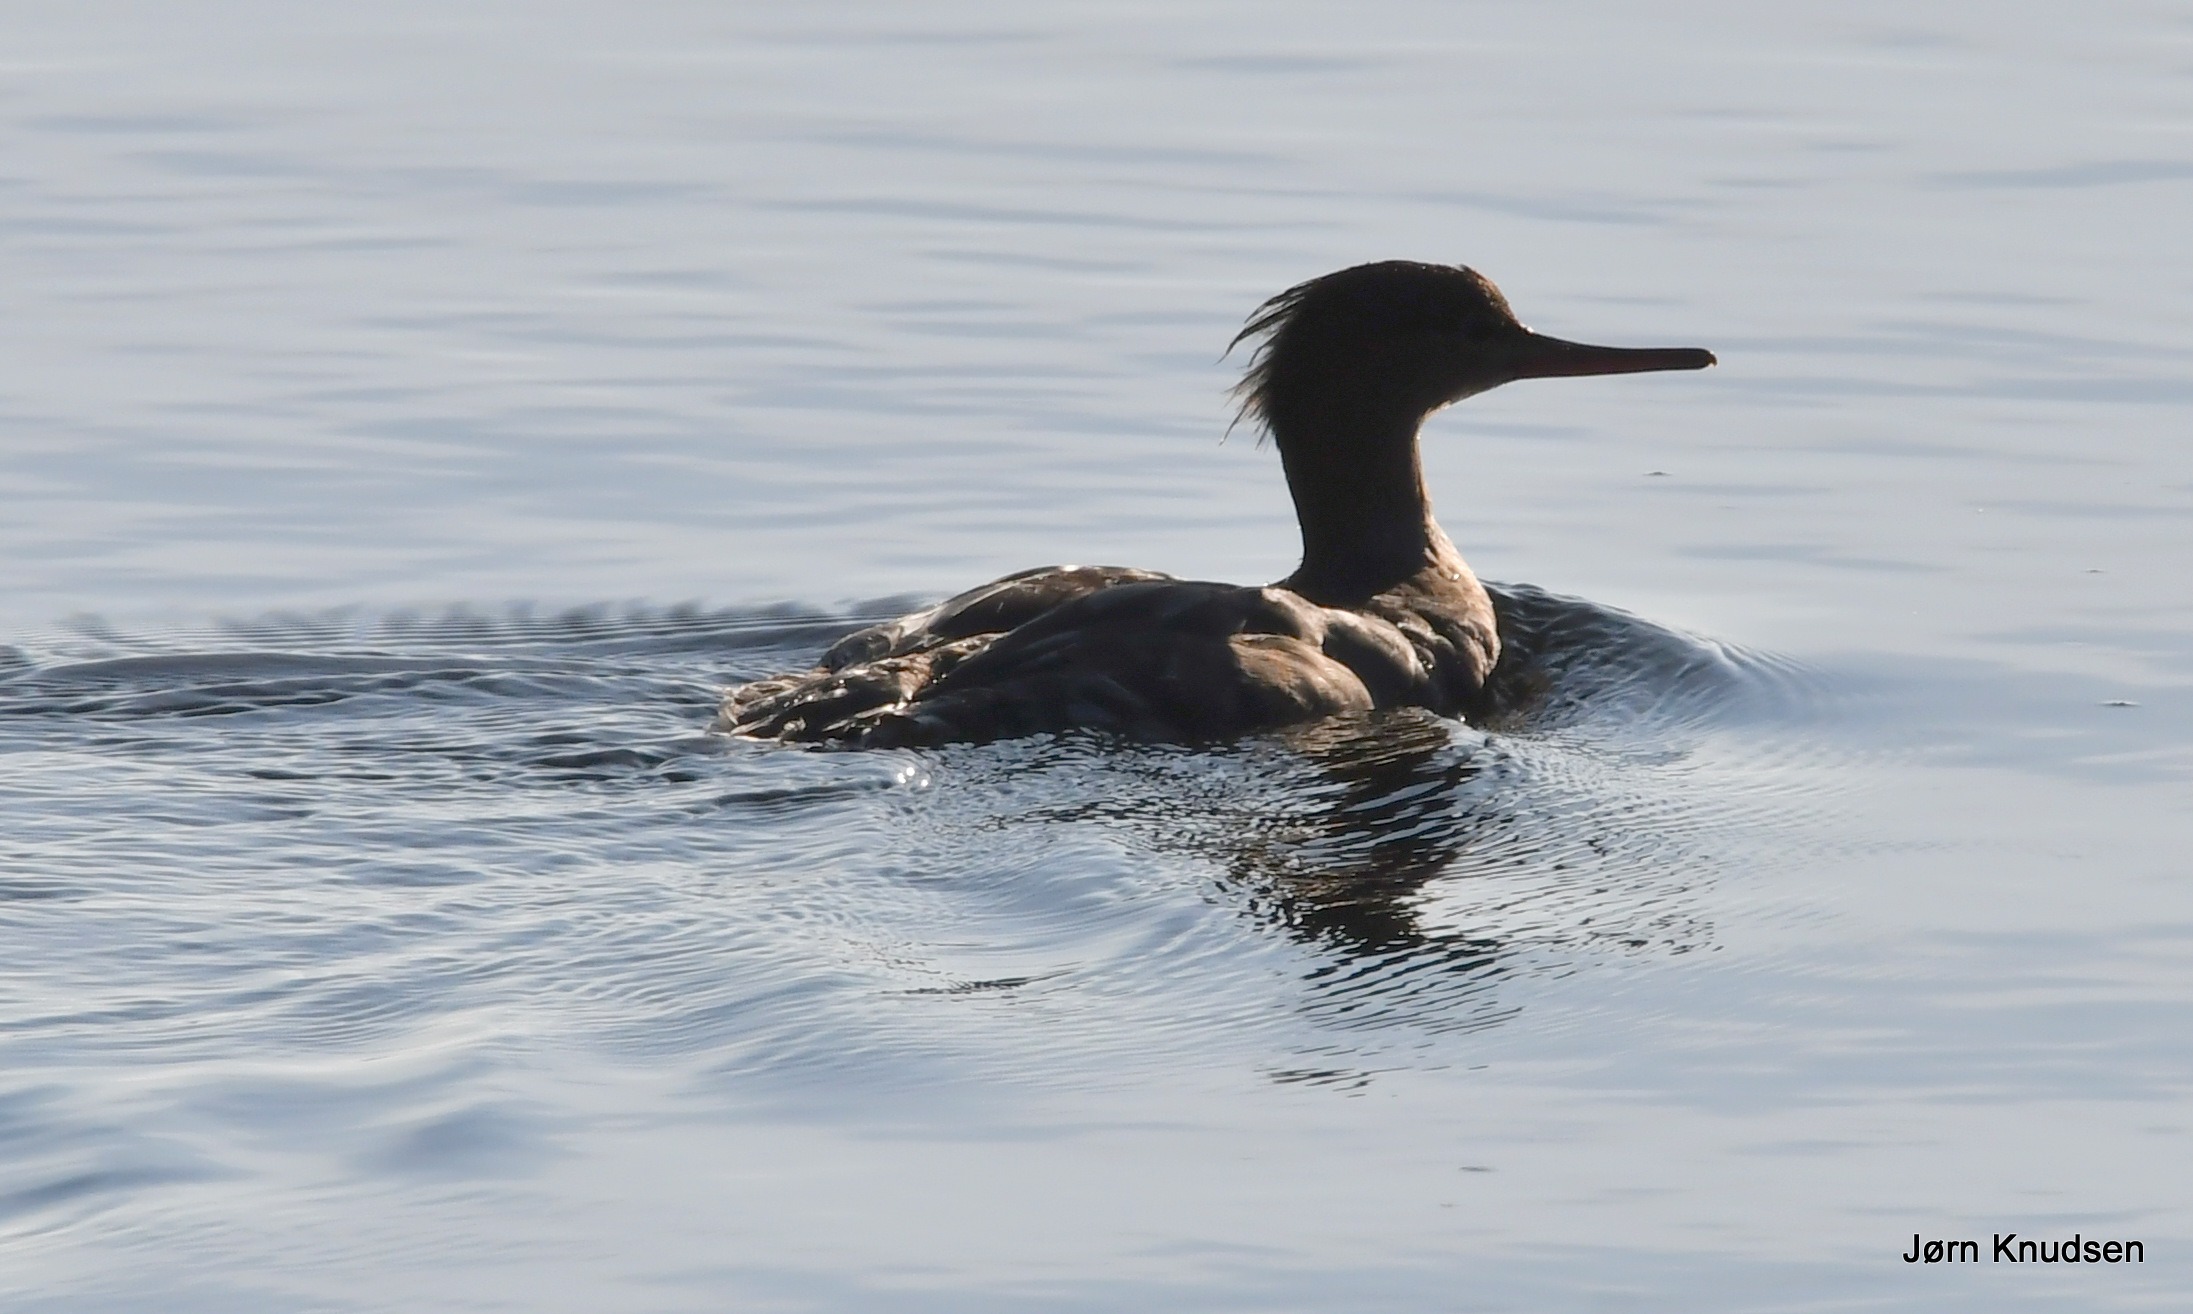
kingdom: Animalia
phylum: Chordata
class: Aves
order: Anseriformes
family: Anatidae
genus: Mergus
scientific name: Mergus serrator
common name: Toppet skallesluger
